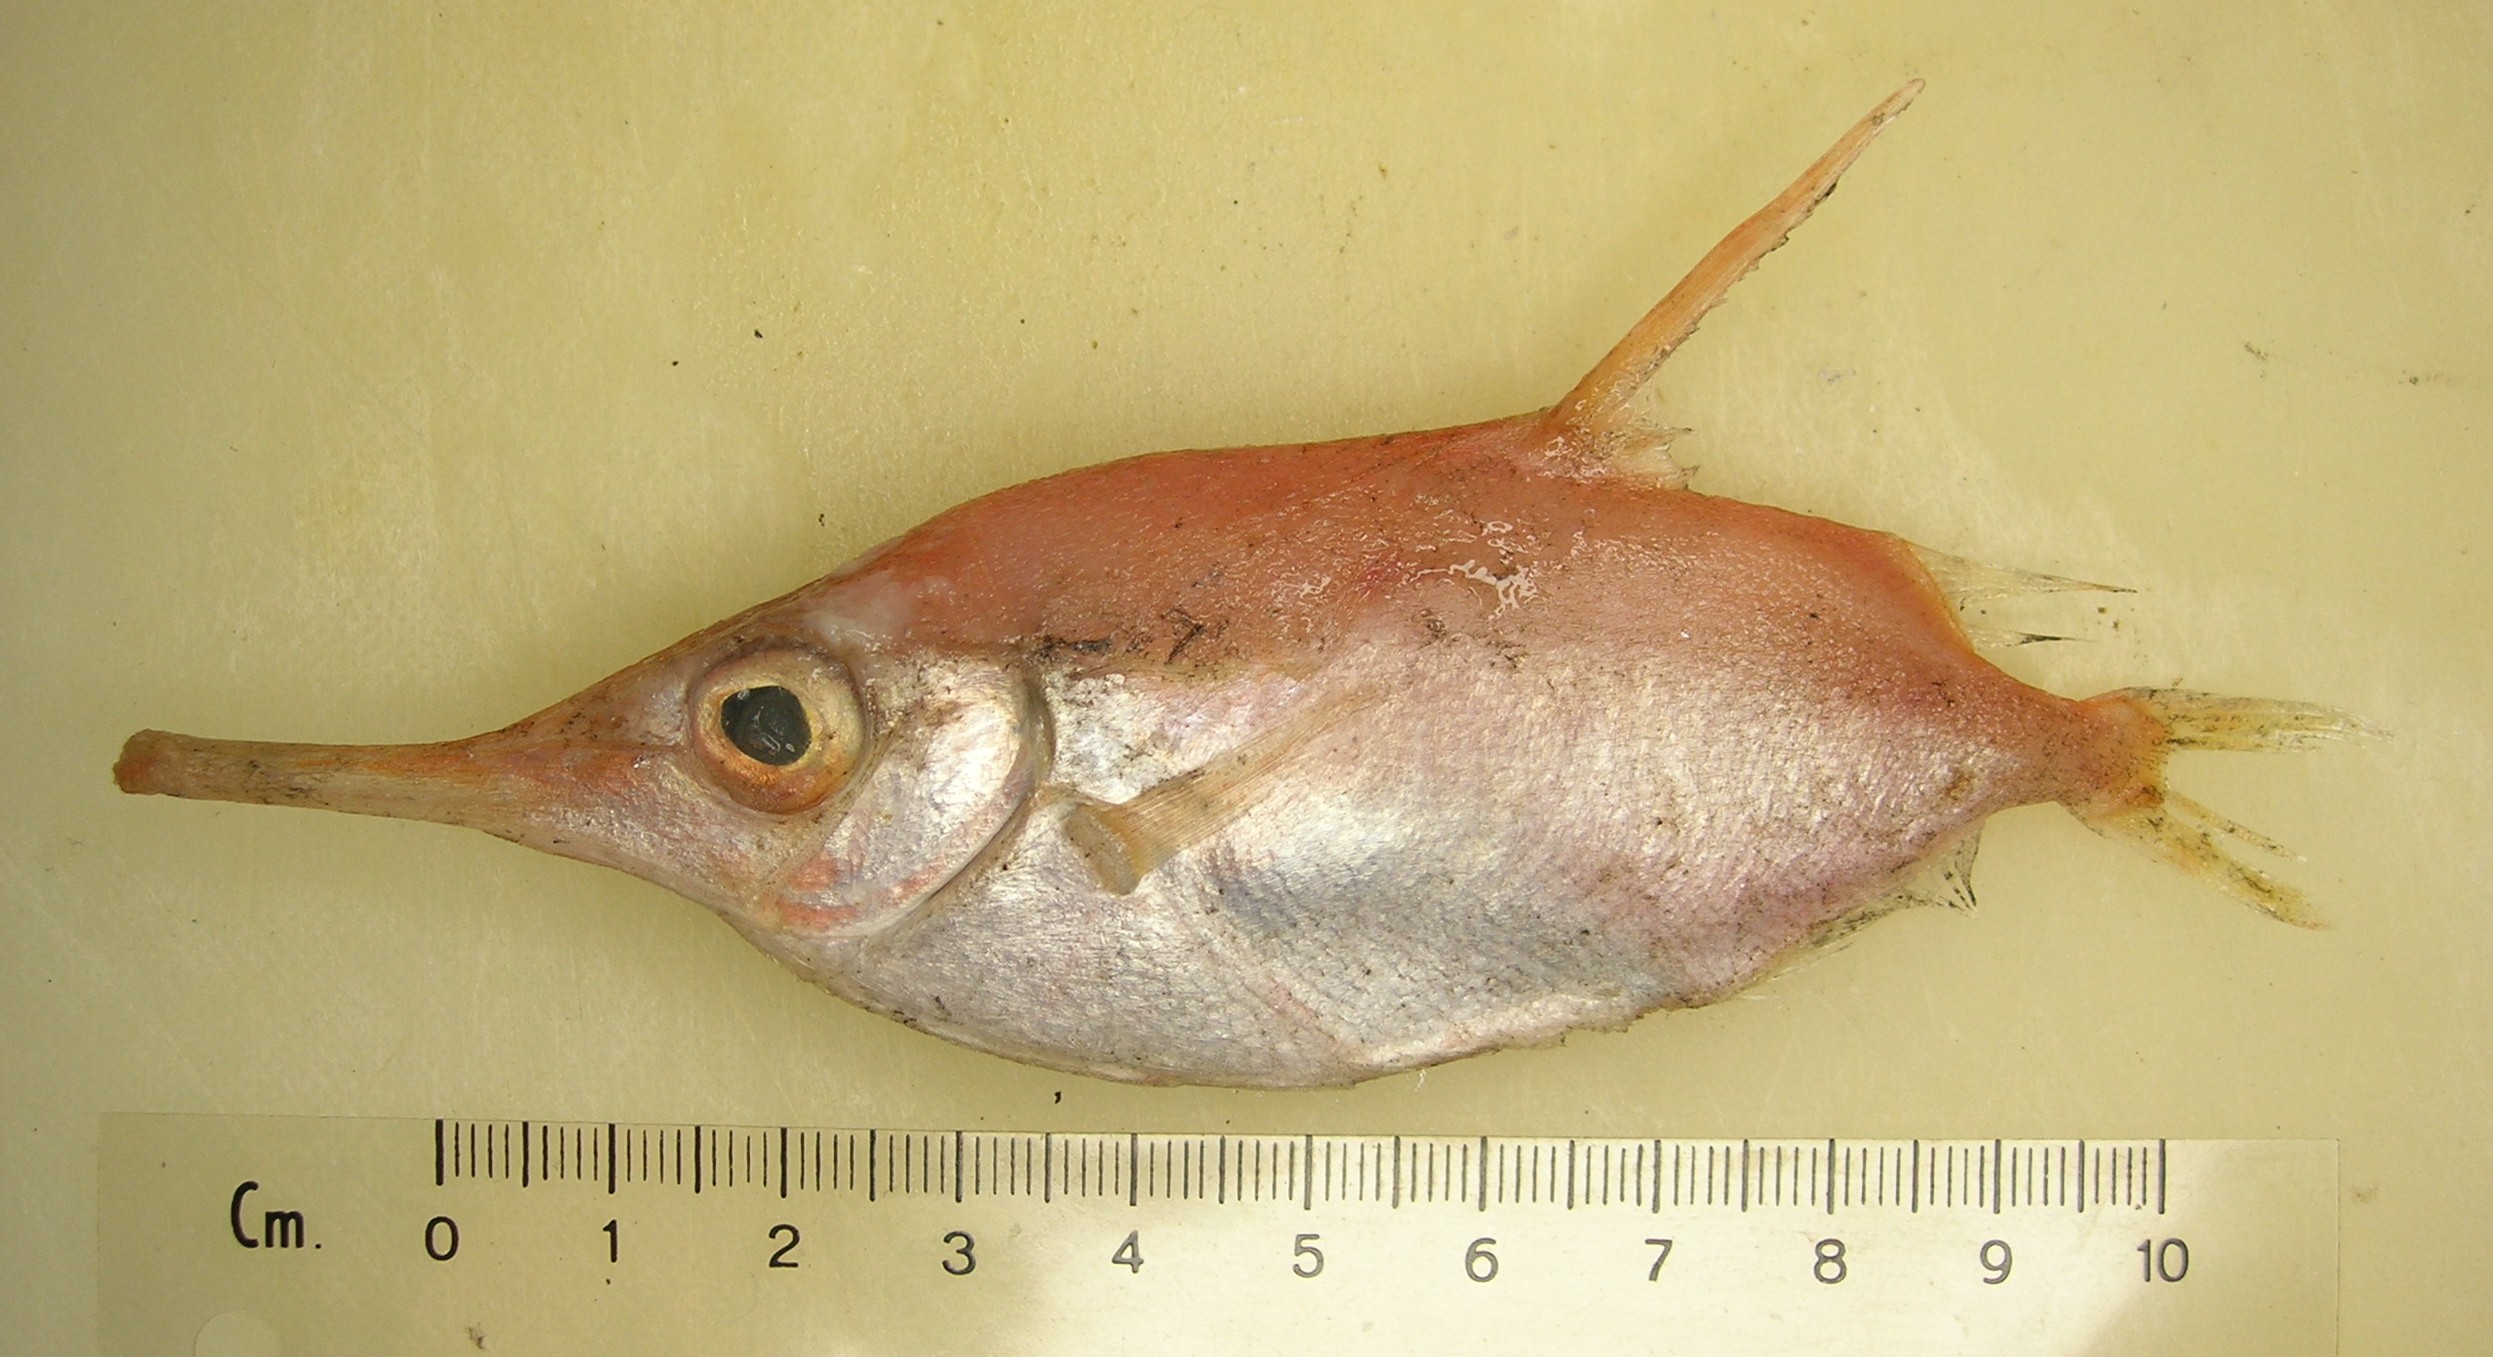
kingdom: Animalia
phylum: Chordata
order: Syngnathiformes
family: Centriscidae
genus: Macroramphosus
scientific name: Macroramphosus scolopax
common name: Snipe-fish
